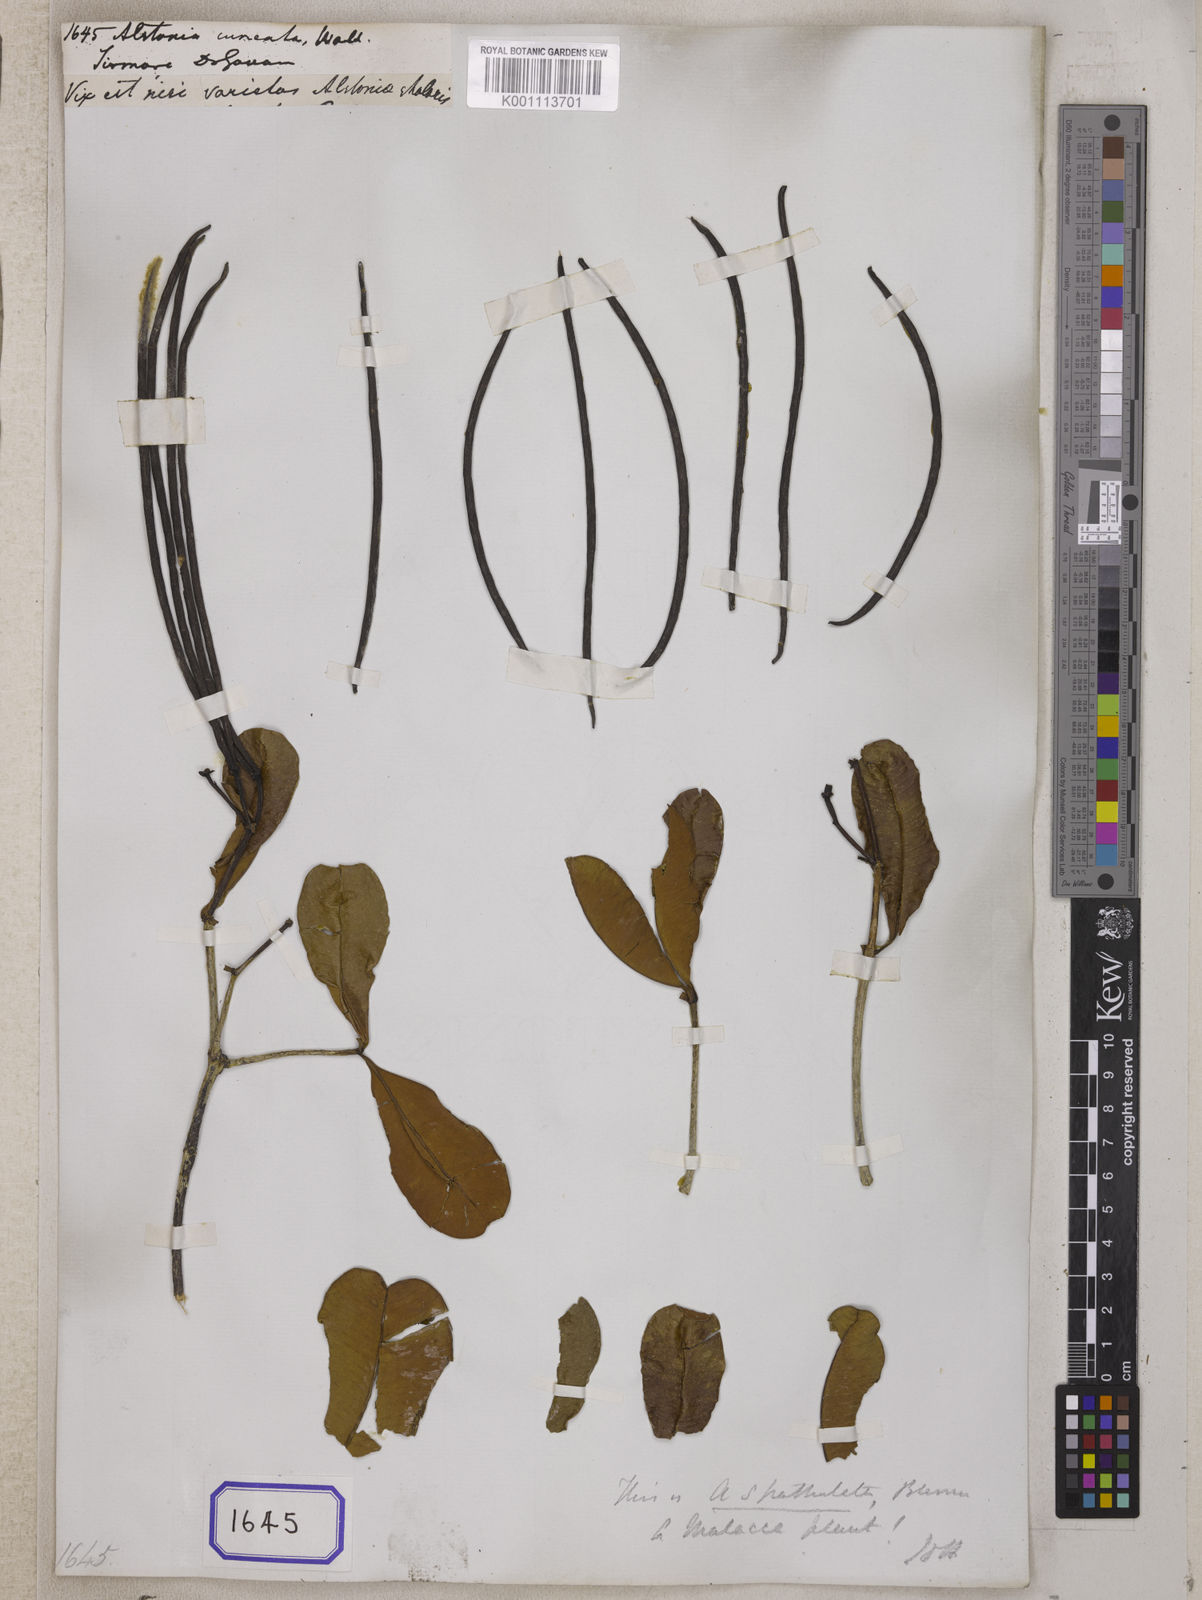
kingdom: Plantae
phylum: Tracheophyta
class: Magnoliopsida
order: Gentianales
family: Apocynaceae
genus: Alstonia
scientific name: Alstonia
